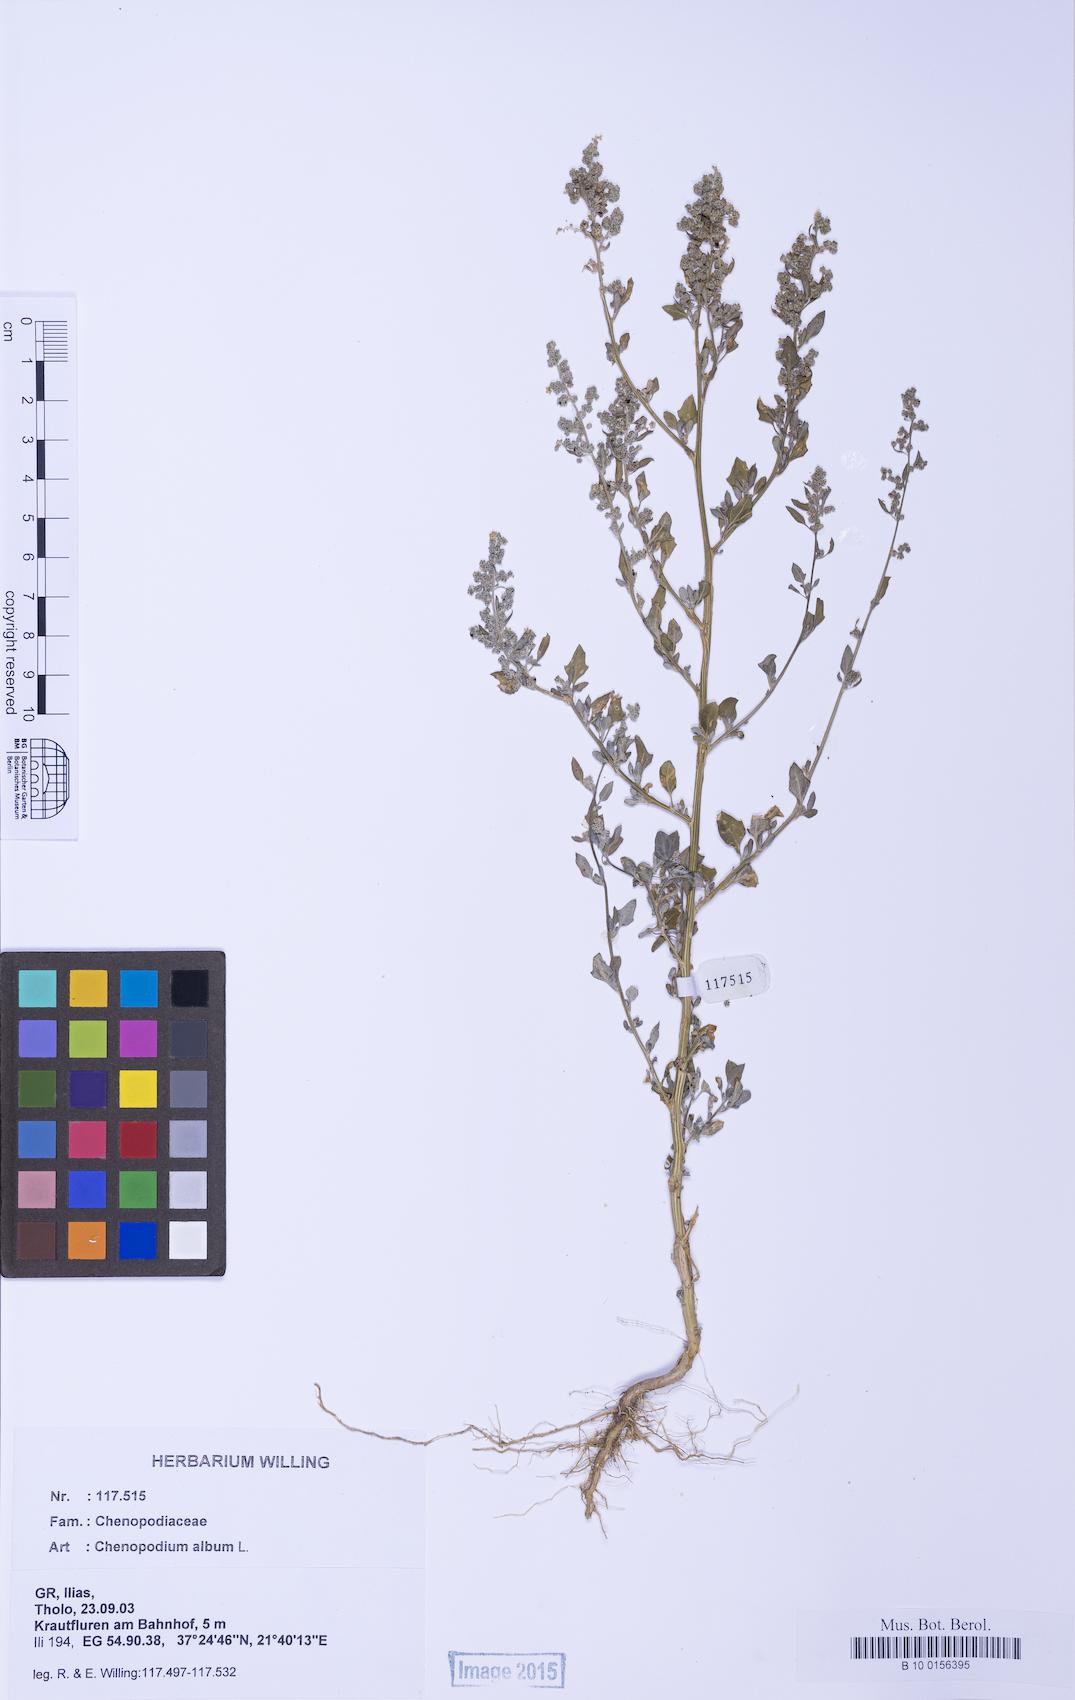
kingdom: Plantae
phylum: Tracheophyta
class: Magnoliopsida
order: Caryophyllales
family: Amaranthaceae
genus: Chenopodium
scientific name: Chenopodium album
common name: Fat-hen
